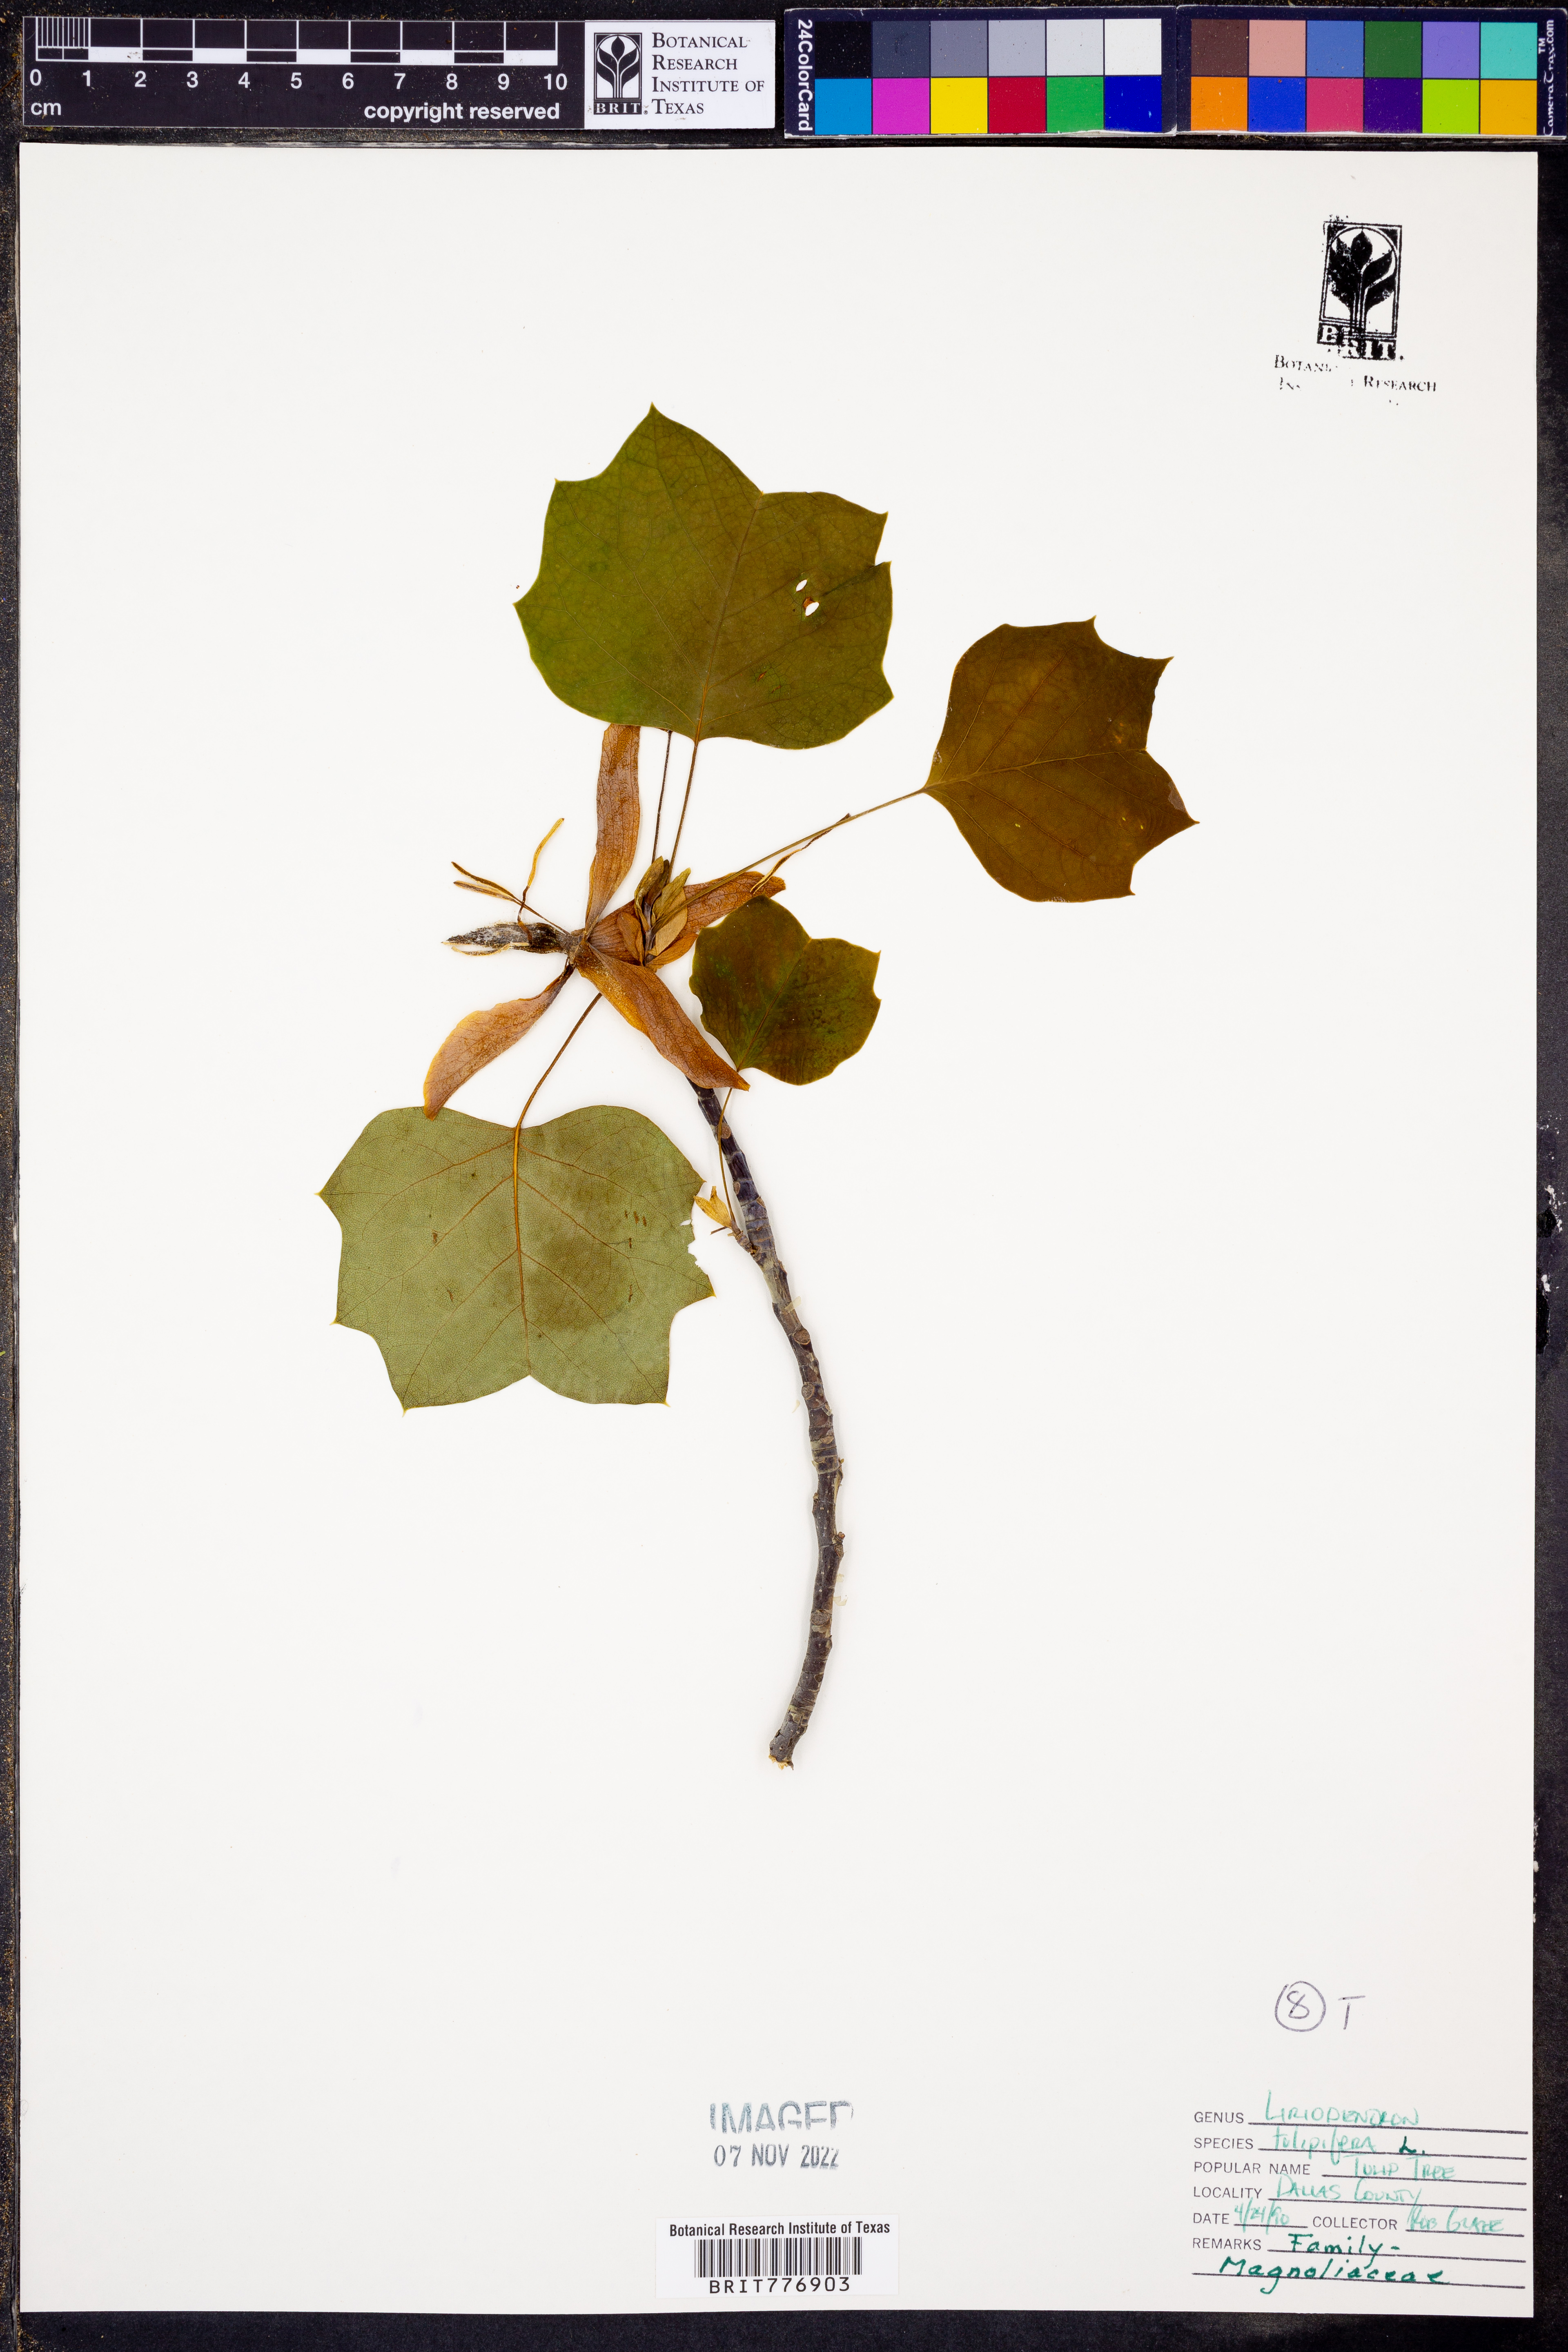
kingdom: Plantae
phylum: Tracheophyta
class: Magnoliopsida
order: Magnoliales
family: Magnoliaceae
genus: Liriodendron
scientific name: Liriodendron tulipifera
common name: Tulip tree
